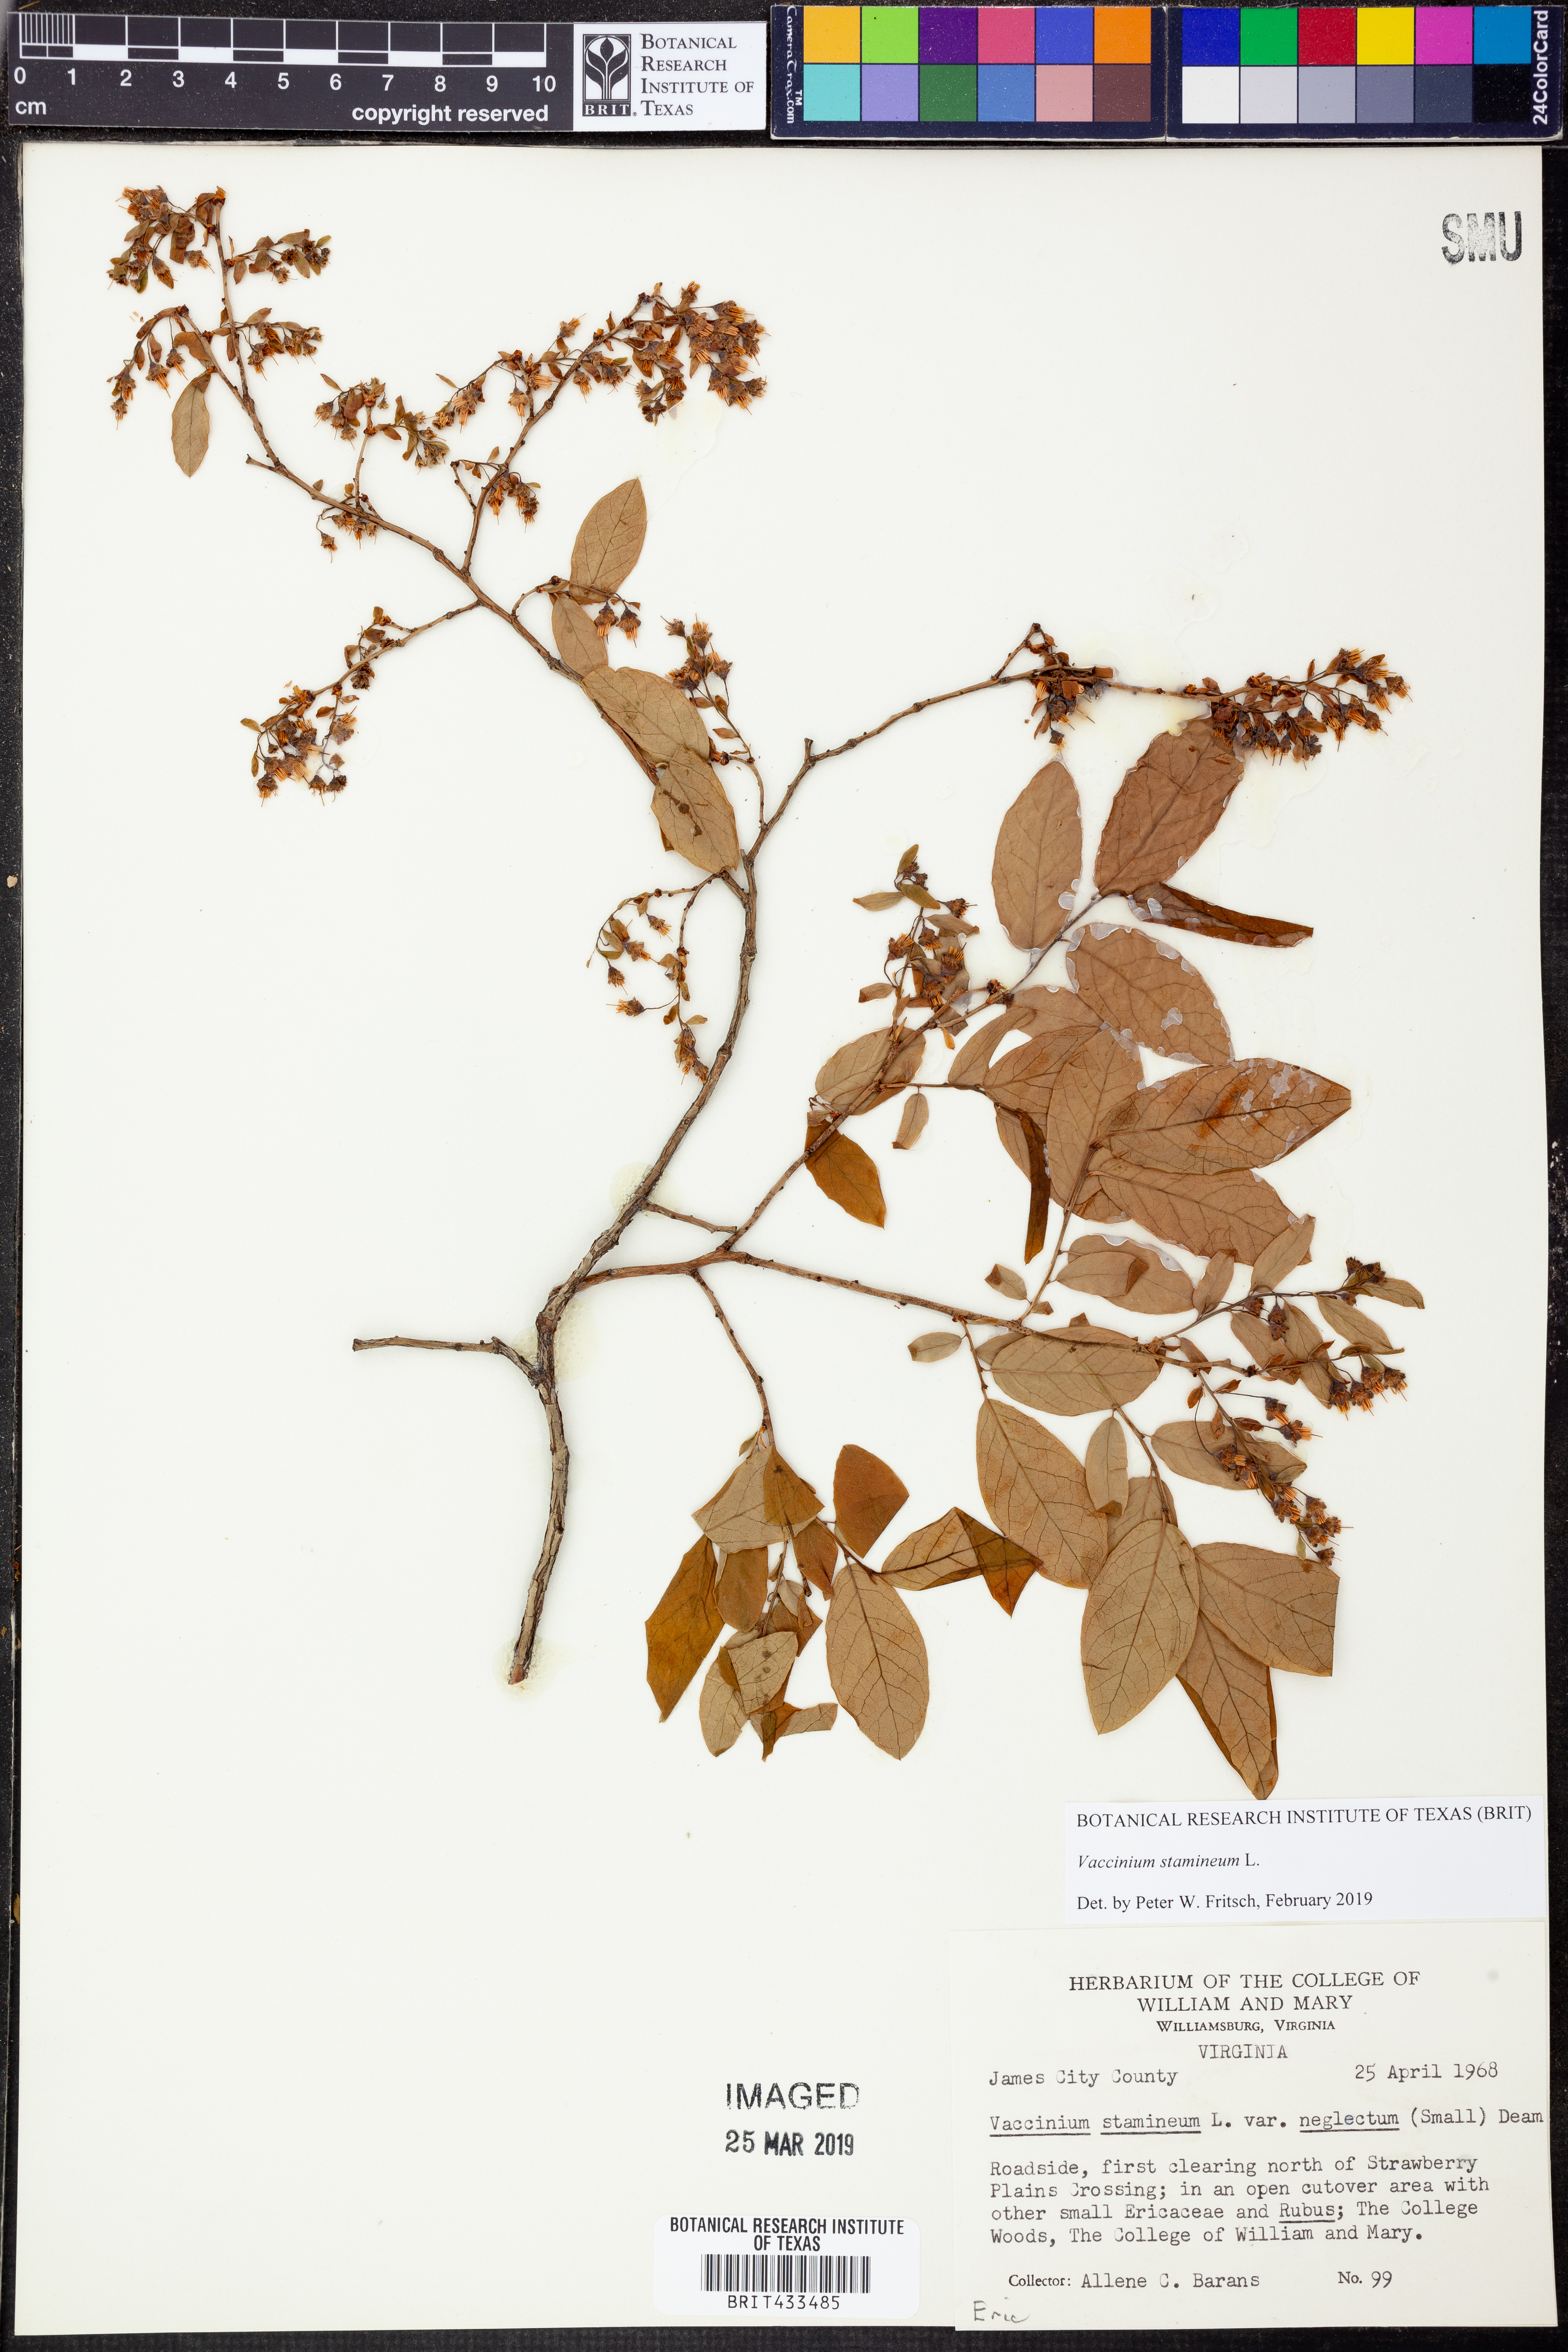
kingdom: Plantae
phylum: Tracheophyta
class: Magnoliopsida
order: Ericales
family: Ericaceae
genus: Vaccinium
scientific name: Vaccinium stamineum
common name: Deerberry
